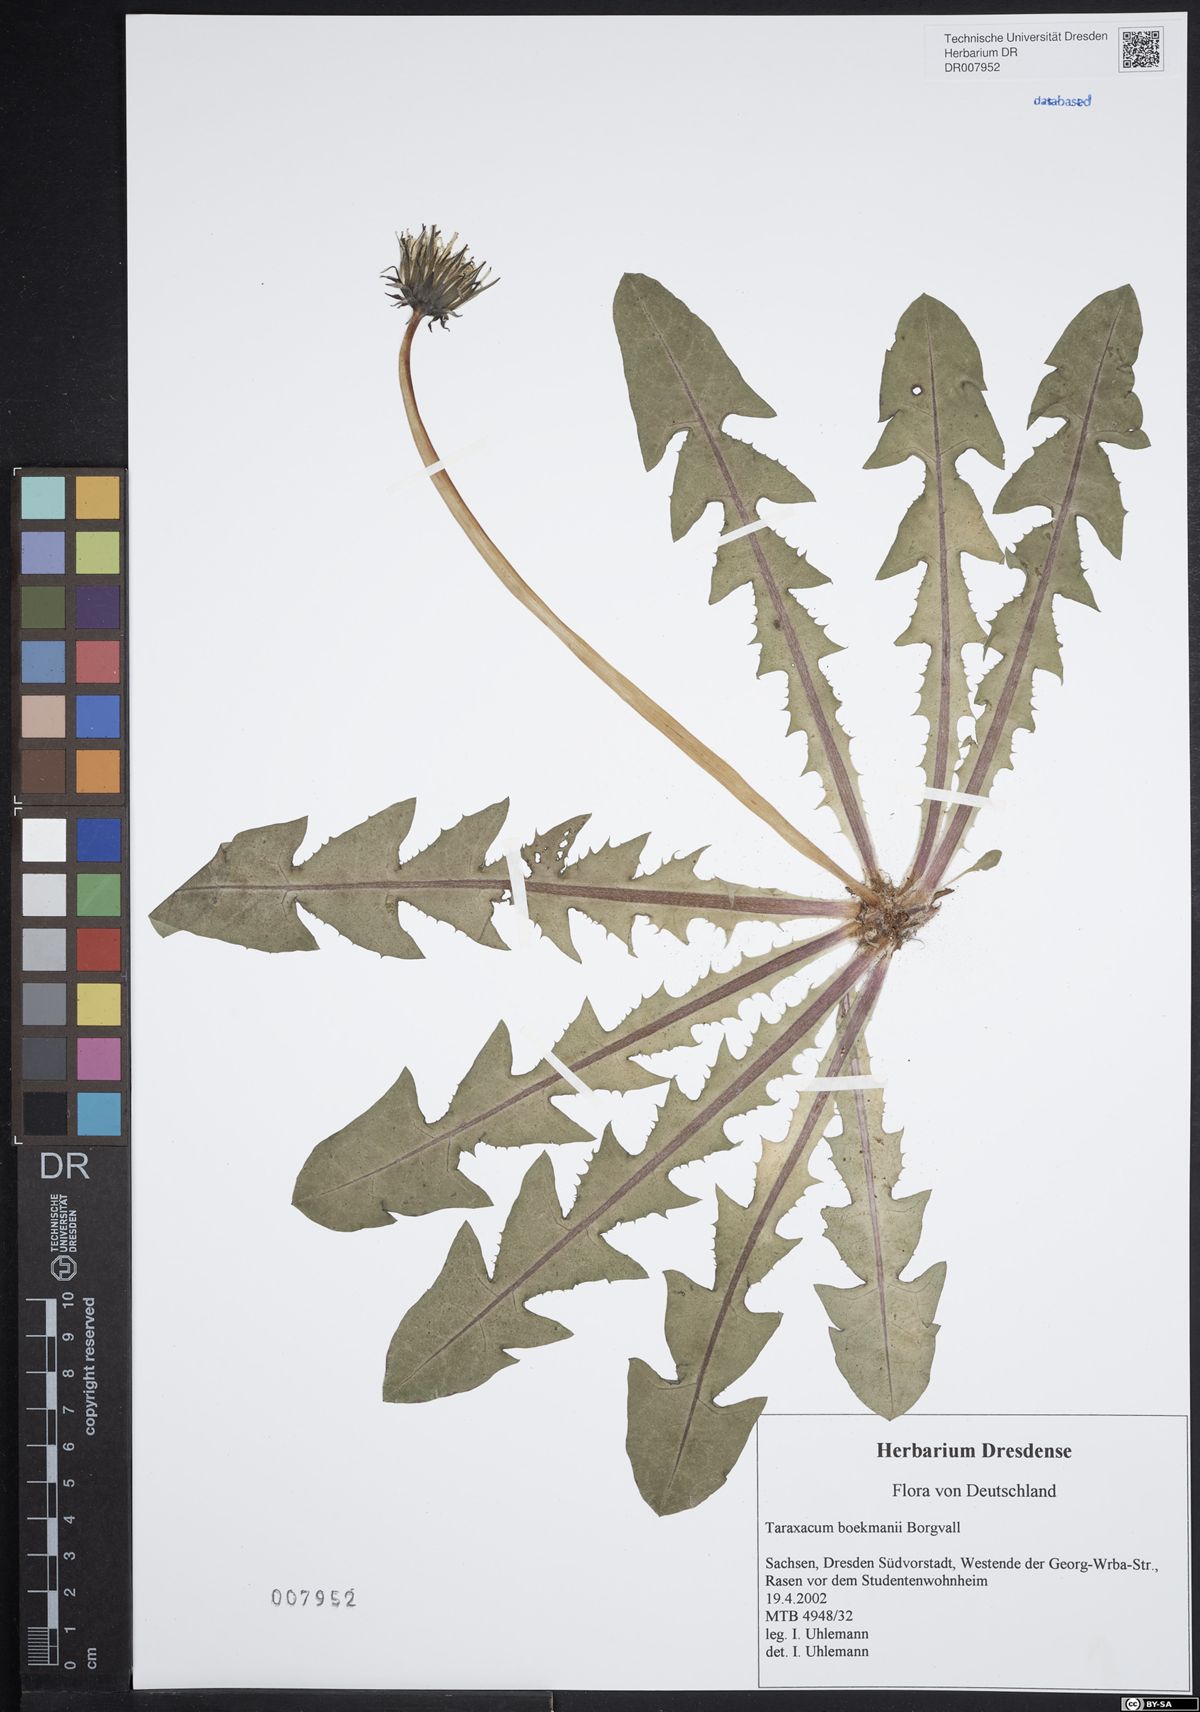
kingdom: Plantae
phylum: Tracheophyta
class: Magnoliopsida
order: Asterales
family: Asteraceae
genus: Taraxacum
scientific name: Taraxacum boekmanii
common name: Bökman's dandelion
